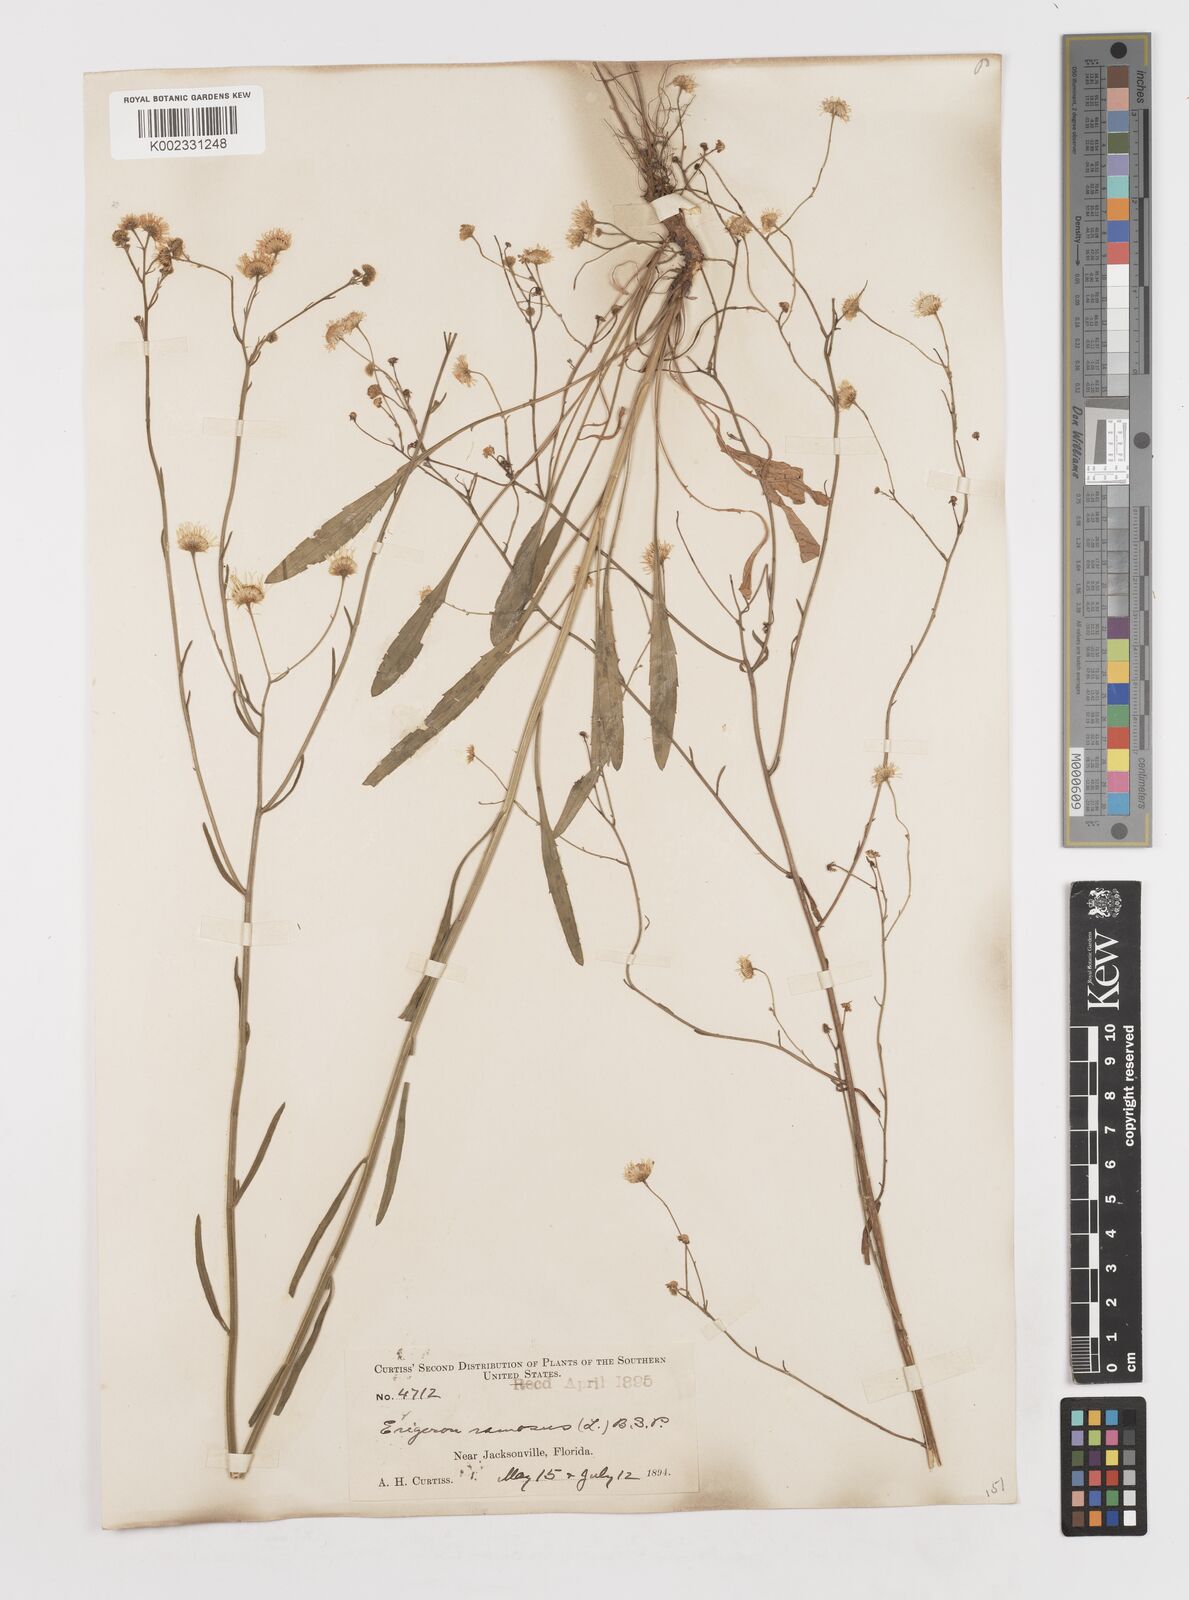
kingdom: Plantae
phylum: Tracheophyta
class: Magnoliopsida
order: Asterales
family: Asteraceae
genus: Erigeron
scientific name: Erigeron strigosus
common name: Common eastern fleabane
